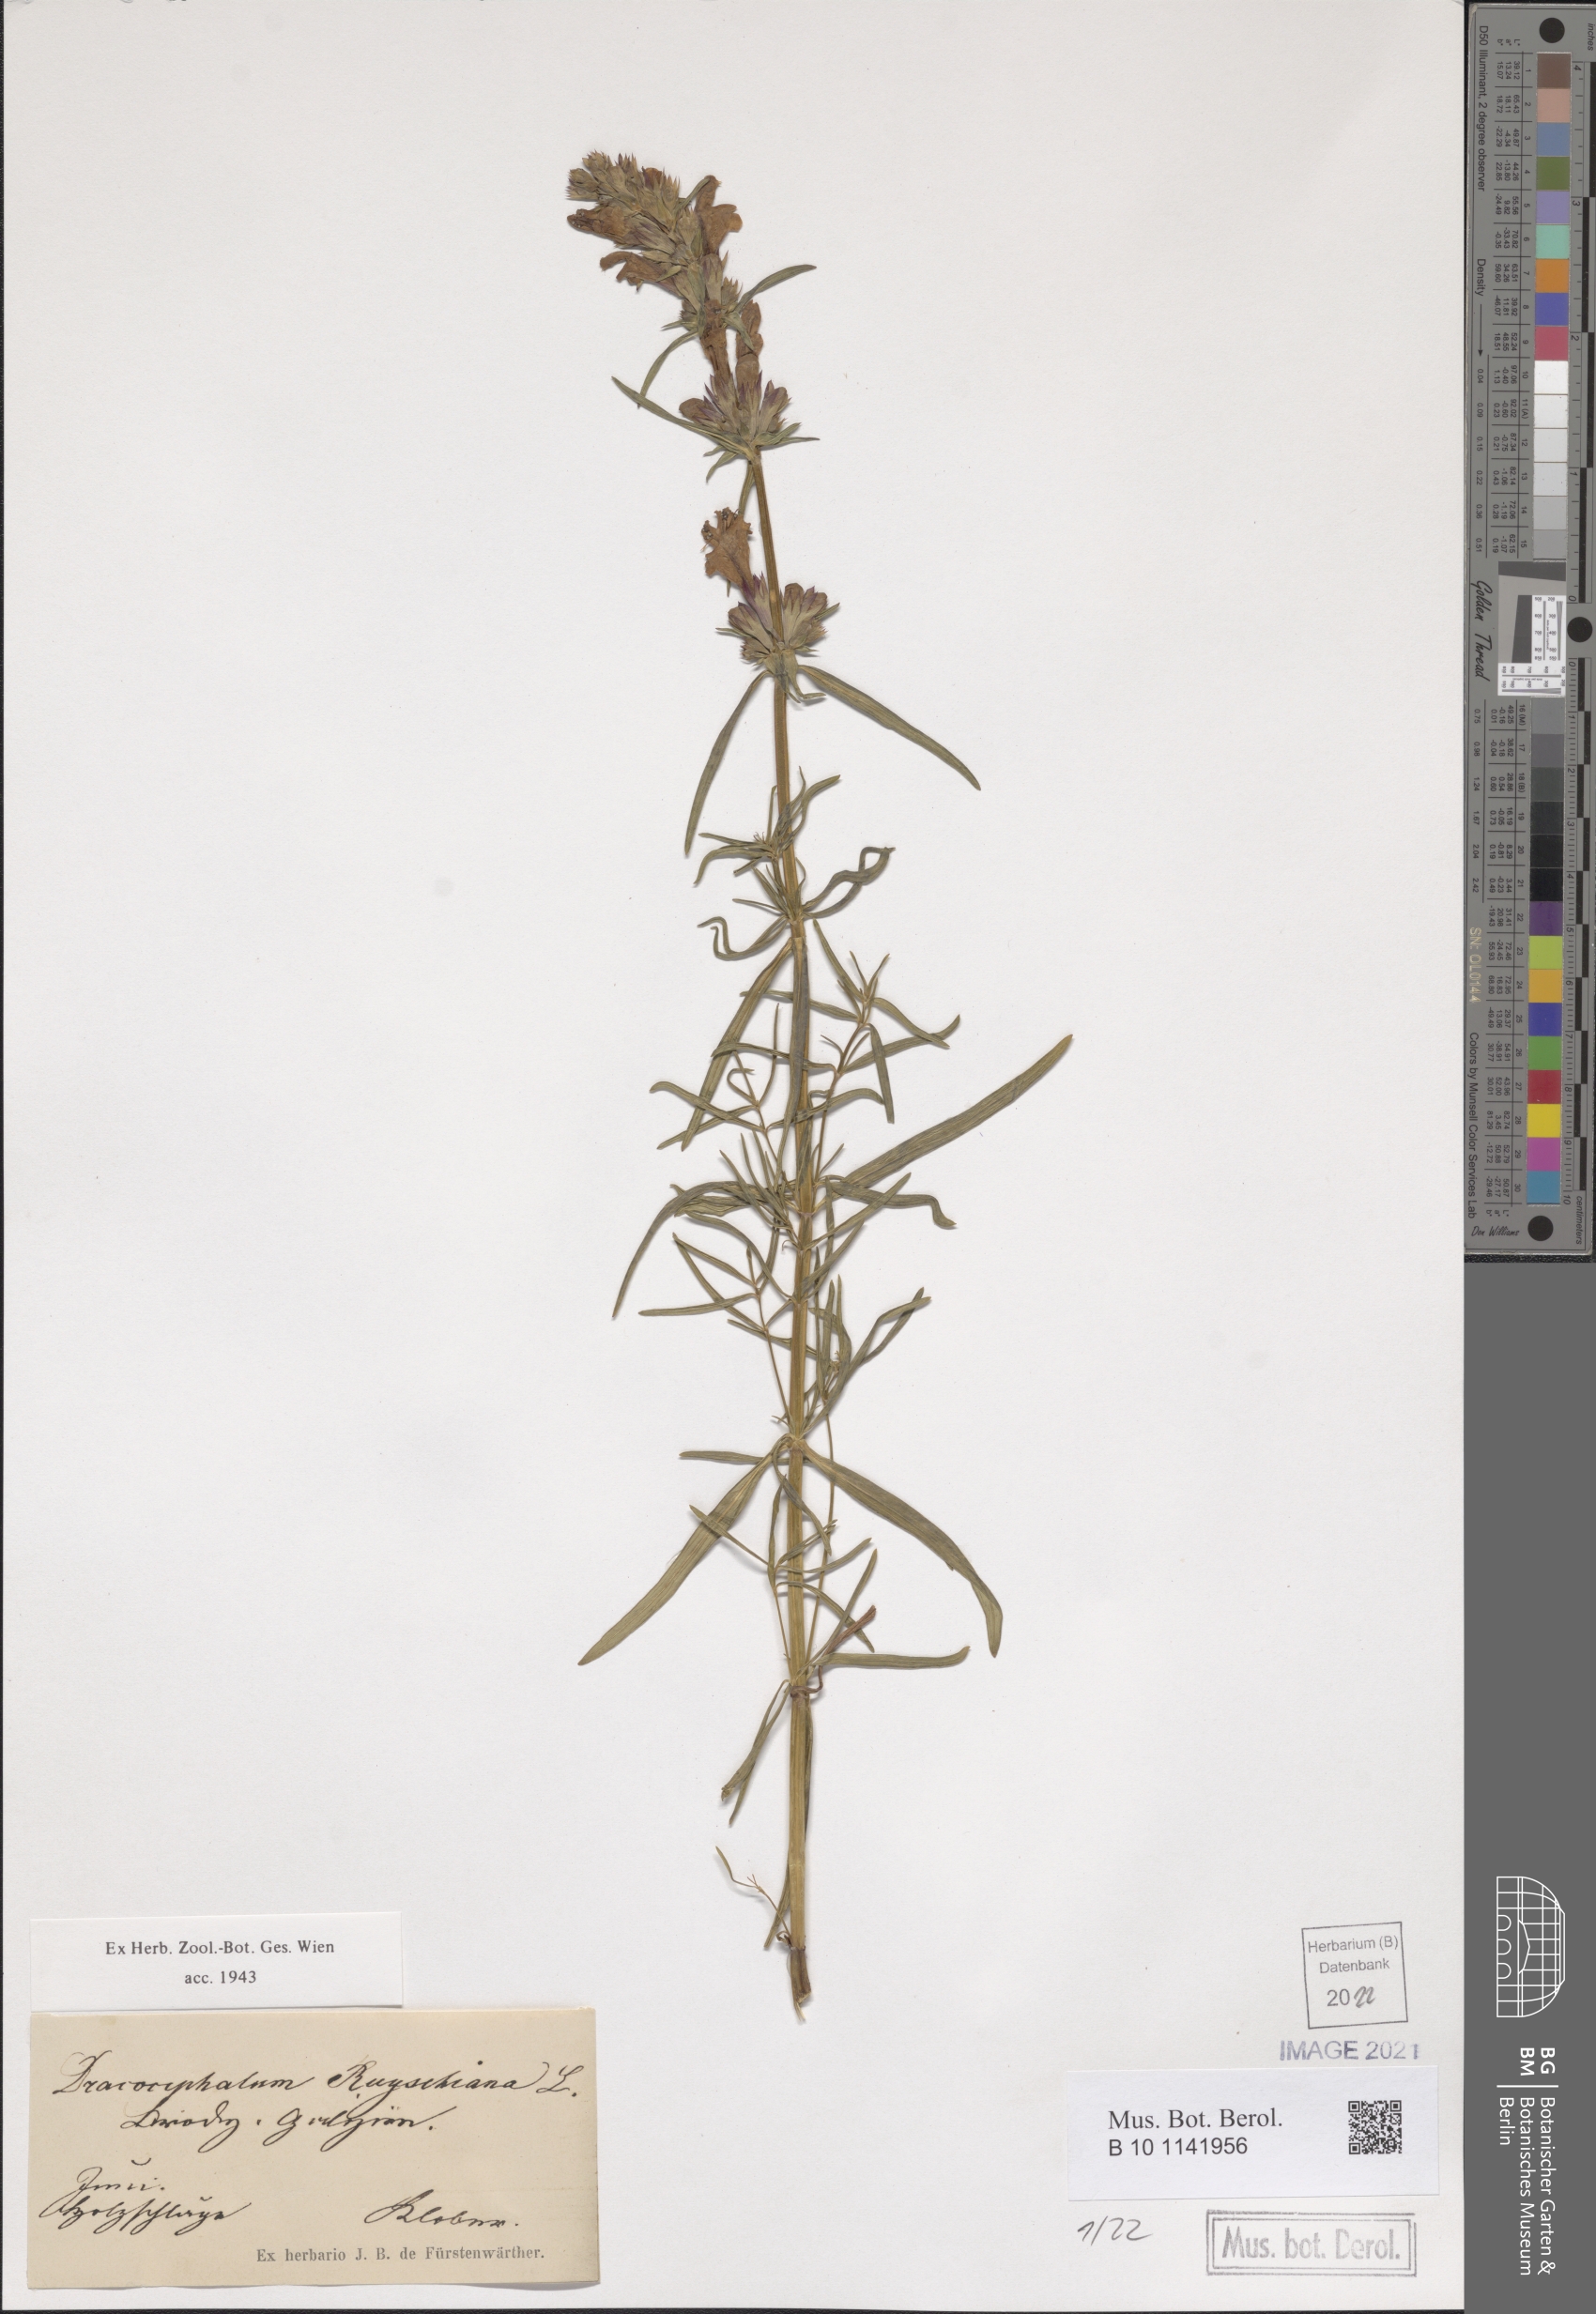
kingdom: Plantae
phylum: Tracheophyta
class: Magnoliopsida
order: Lamiales
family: Lamiaceae
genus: Dracocephalum
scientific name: Dracocephalum ruyschiana
